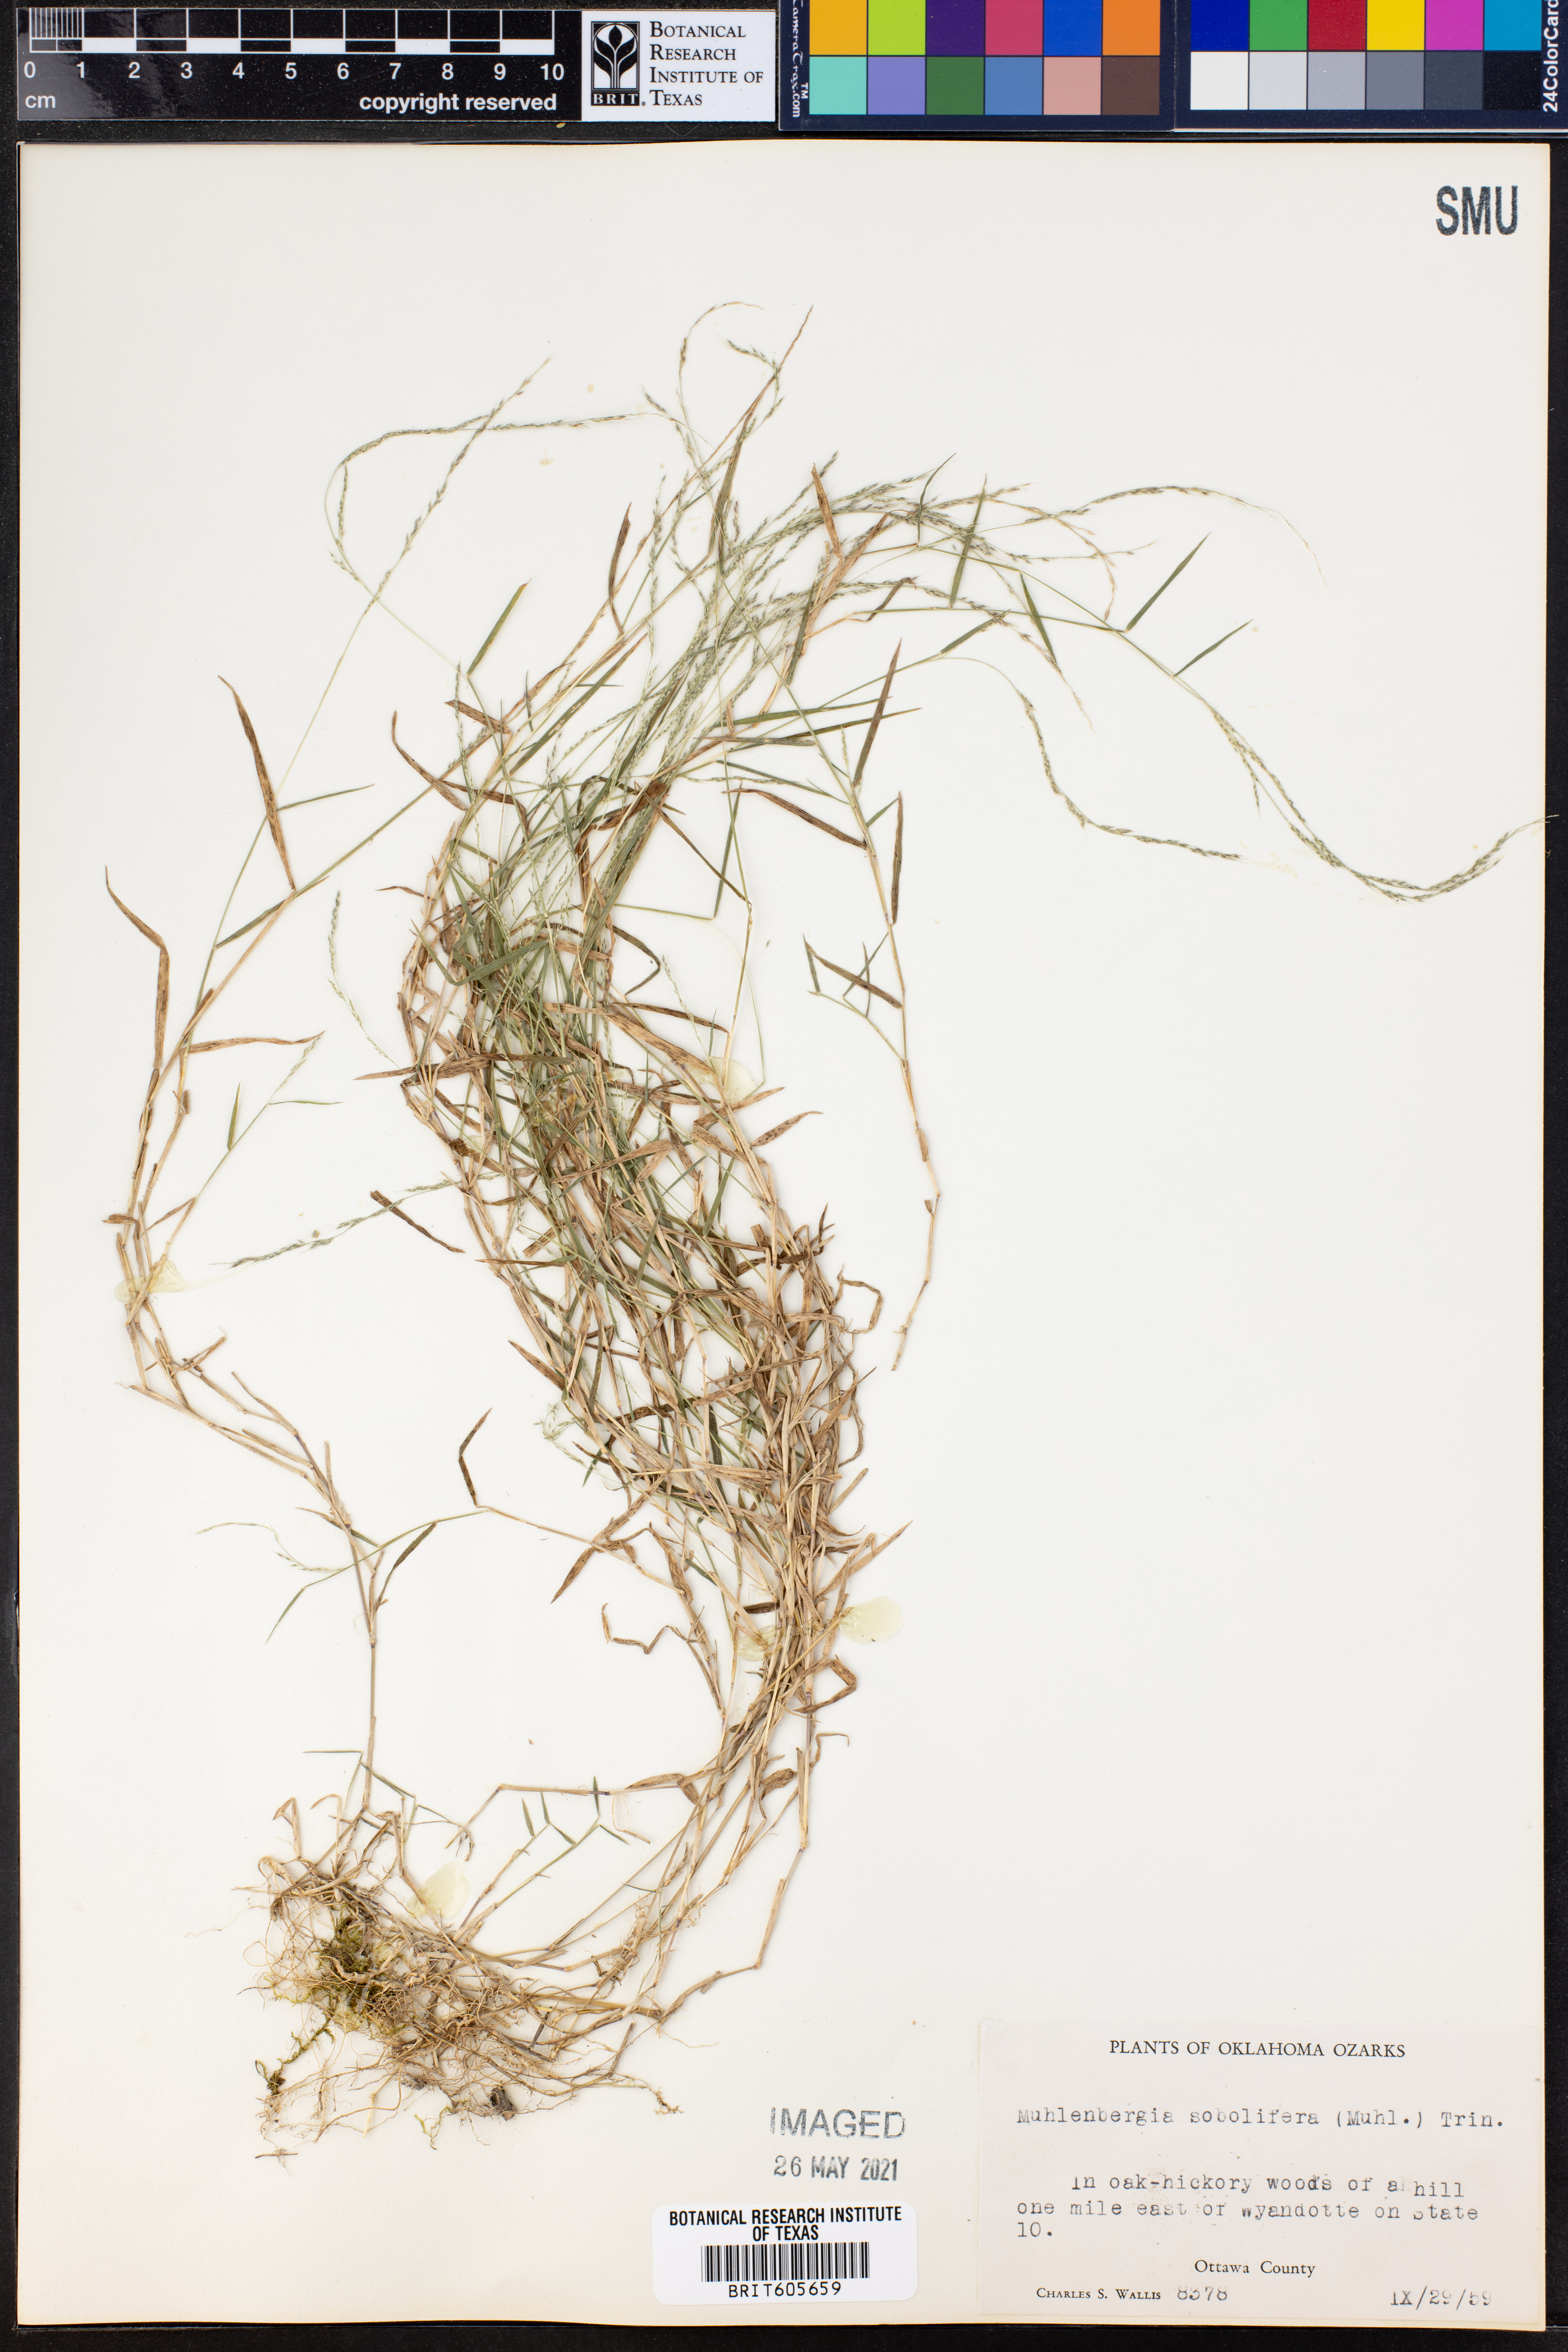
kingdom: Plantae
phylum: Tracheophyta
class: Liliopsida
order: Poales
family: Poaceae
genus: Muhlenbergia
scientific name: Muhlenbergia sobolifera
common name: Creeping muhly
